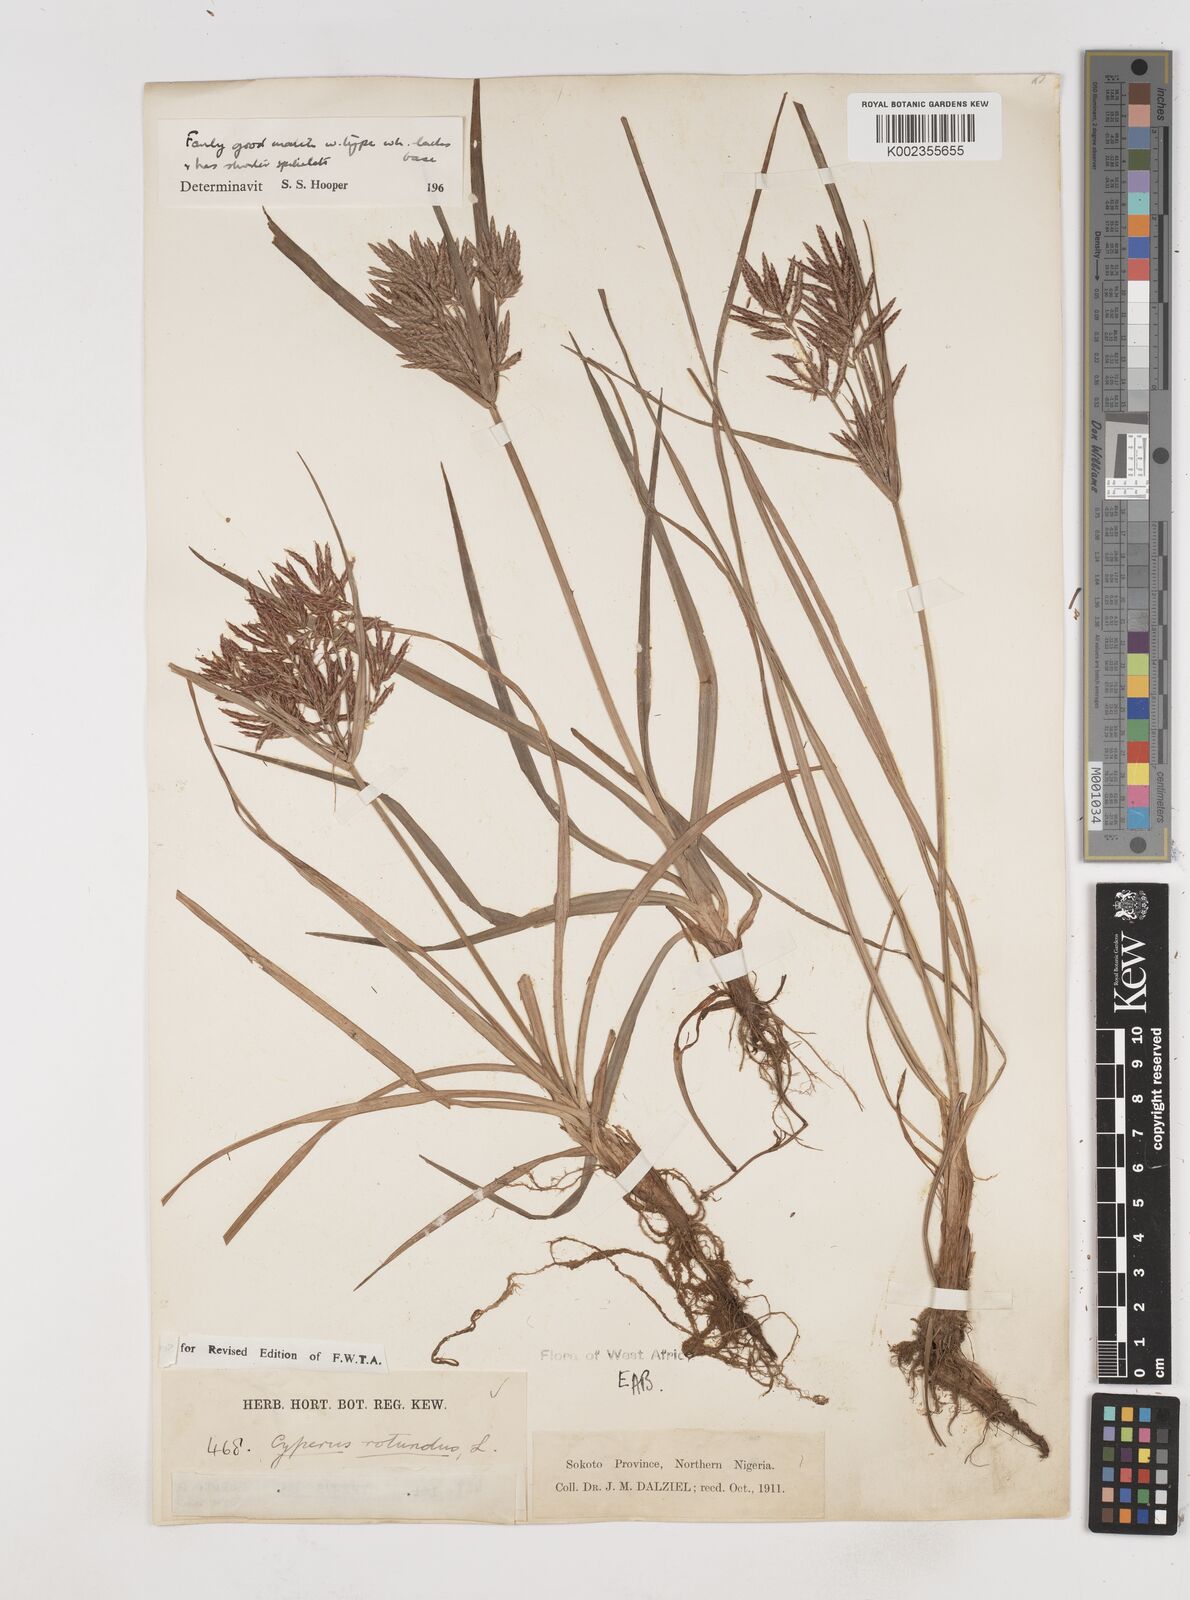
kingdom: Plantae
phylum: Tracheophyta
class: Liliopsida
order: Poales
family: Cyperaceae
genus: Cyperus
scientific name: Cyperus rotundus
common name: Nutgrass
